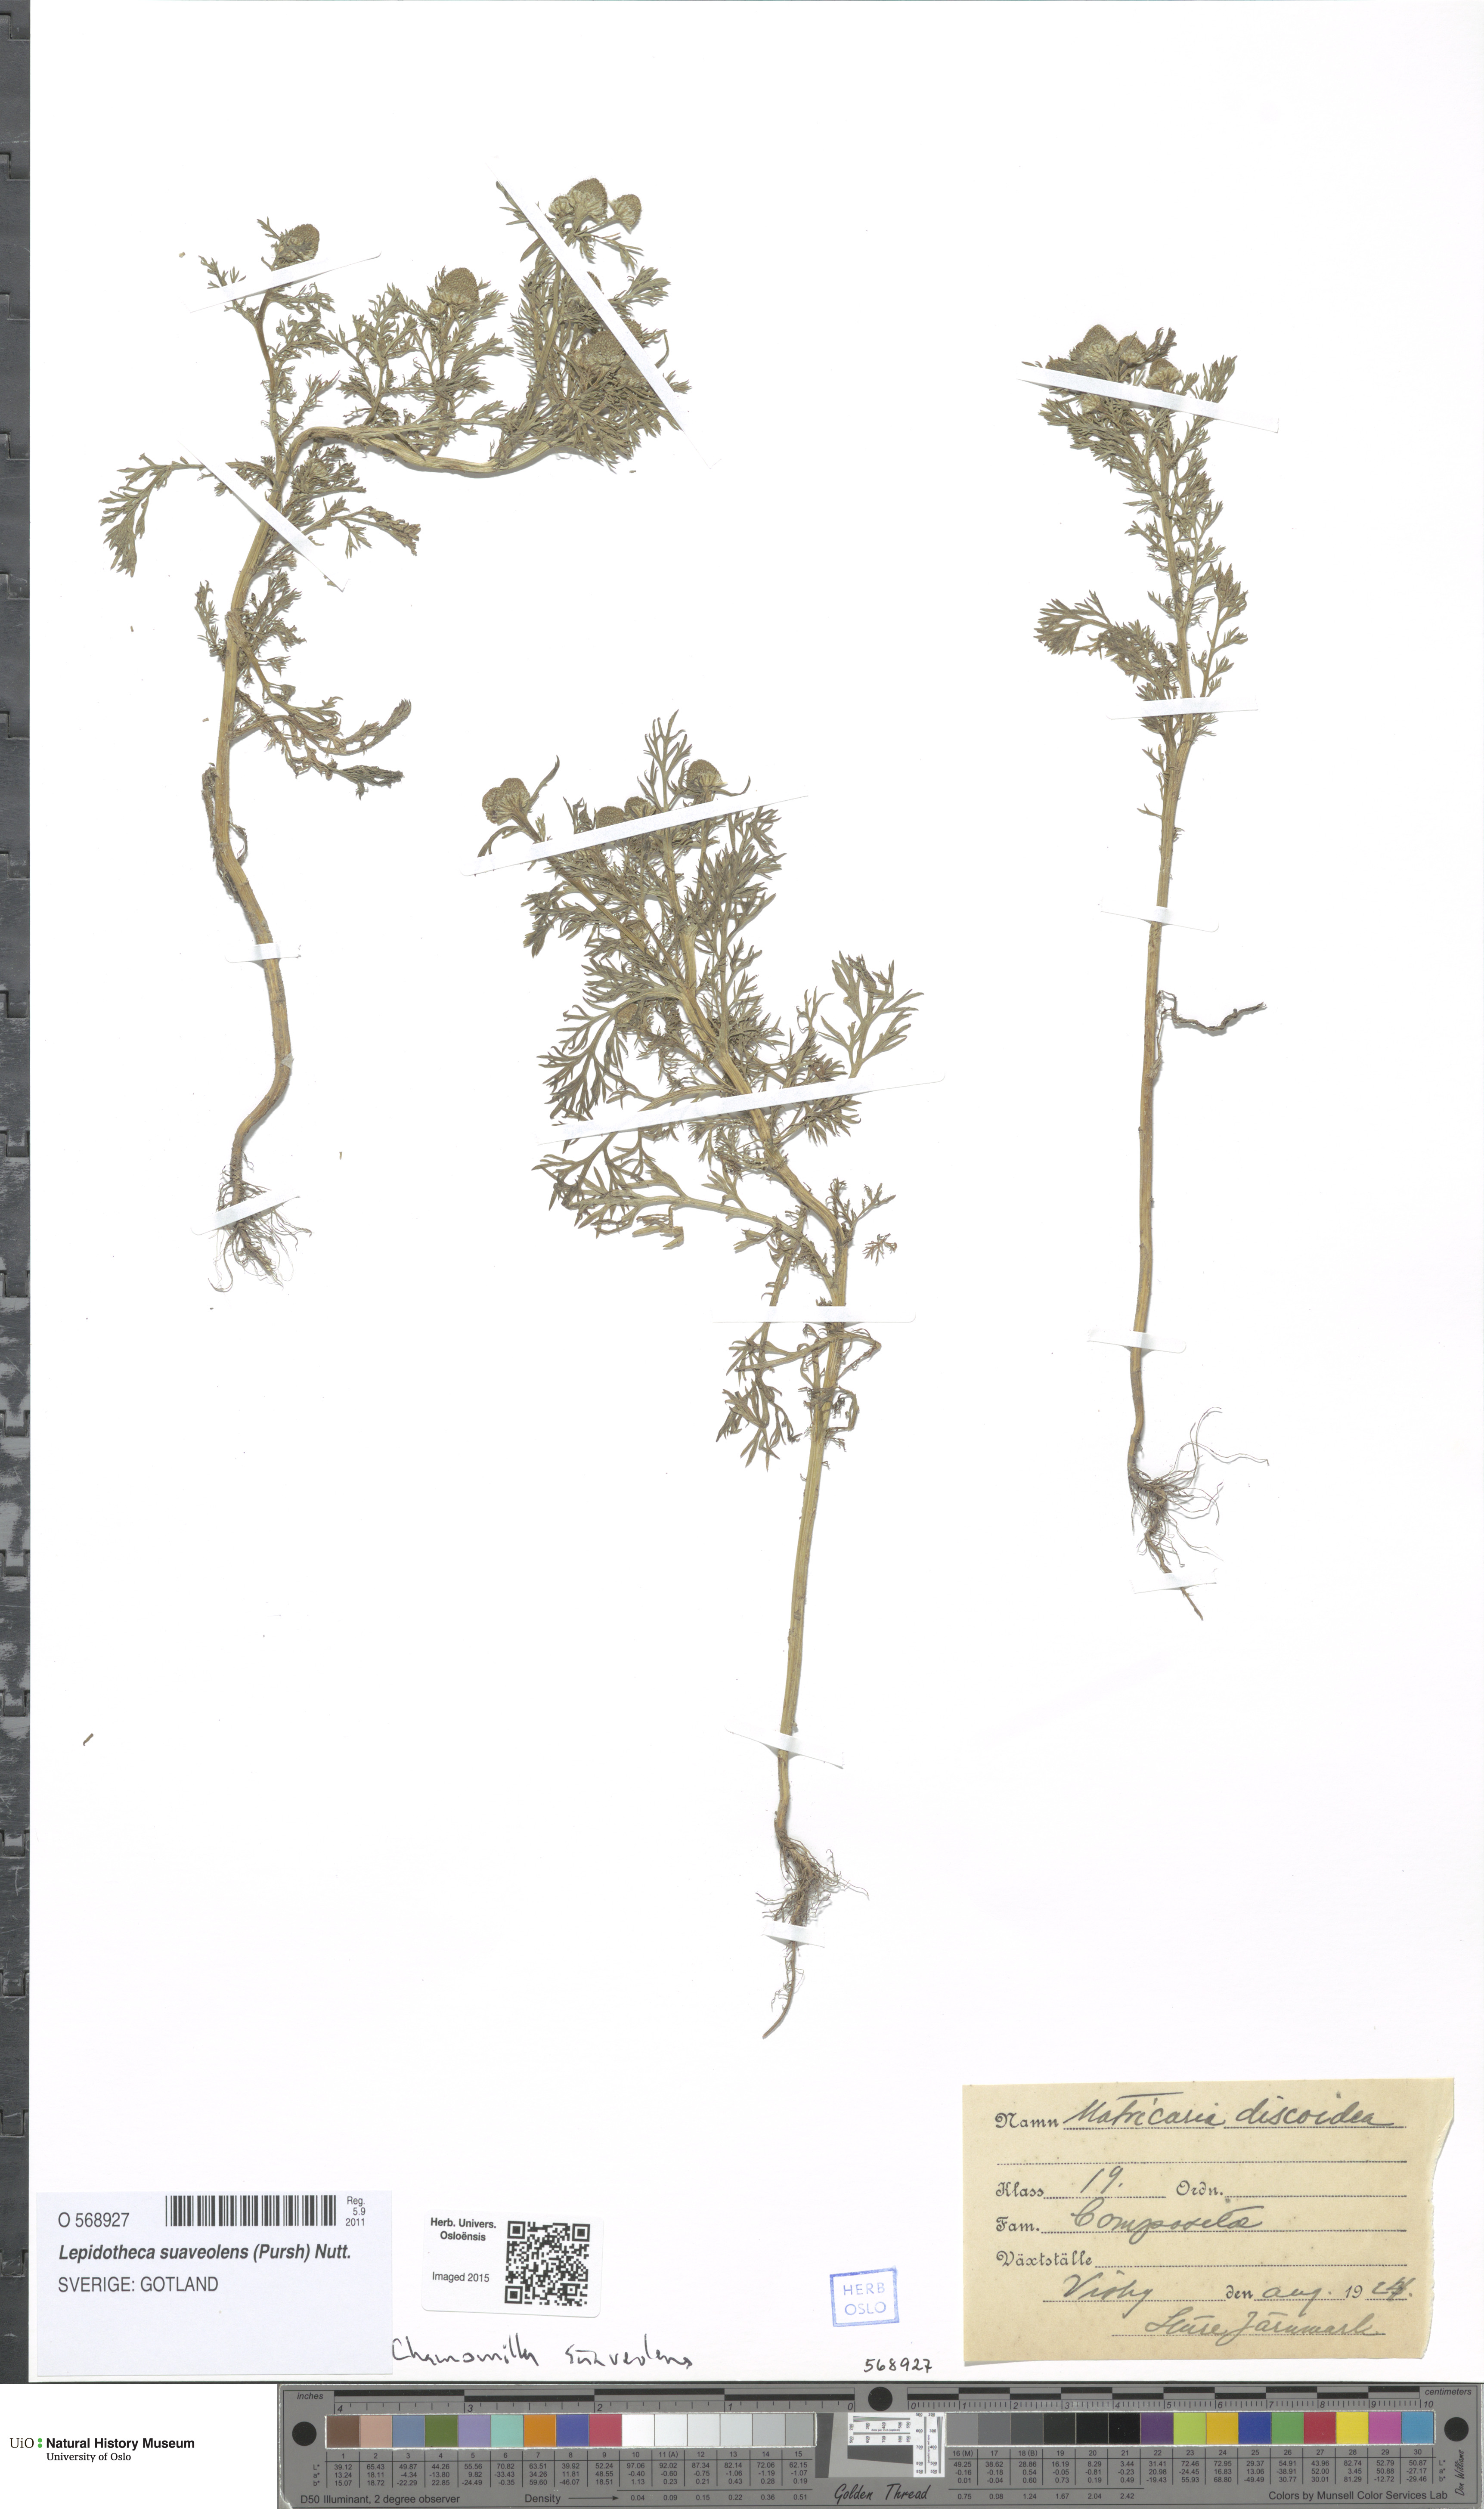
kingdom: Plantae
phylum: Tracheophyta
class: Magnoliopsida
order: Asterales
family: Asteraceae
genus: Matricaria
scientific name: Matricaria discoidea
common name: Disc mayweed
